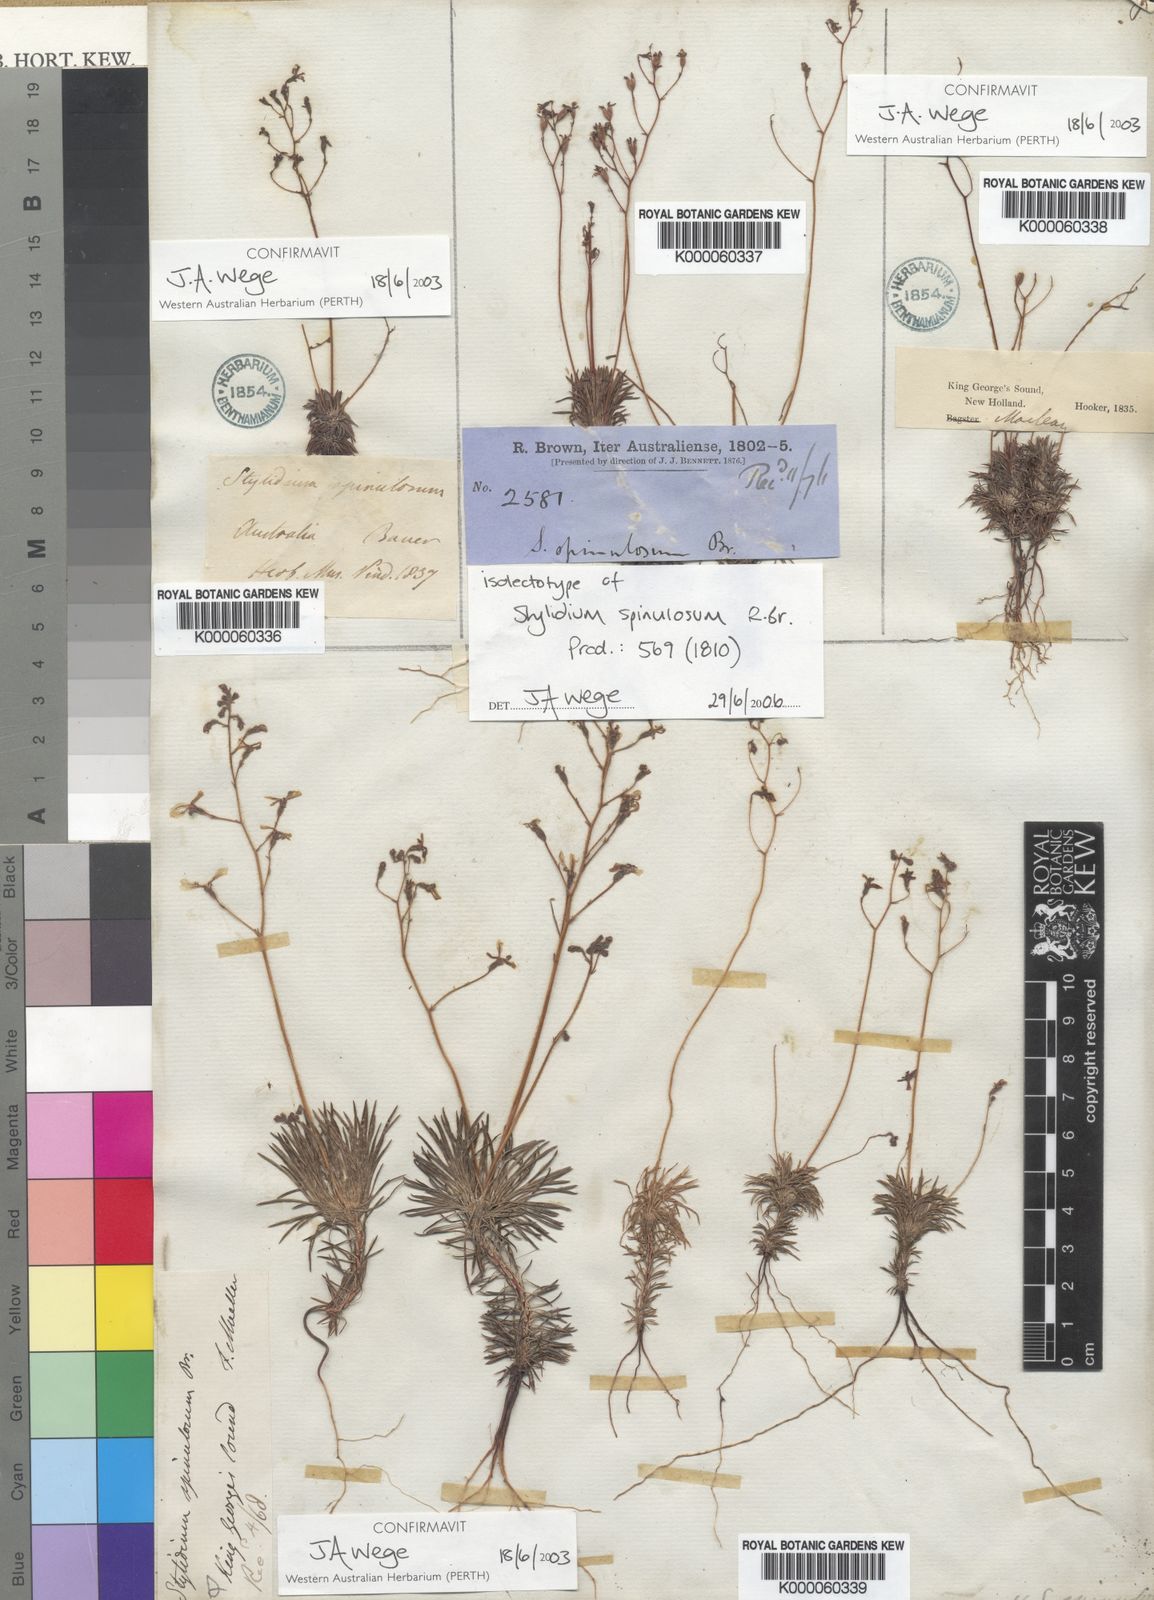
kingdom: Plantae
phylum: Tracheophyta
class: Magnoliopsida
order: Asterales
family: Stylidiaceae
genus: Stylidium
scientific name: Stylidium spinulosum
